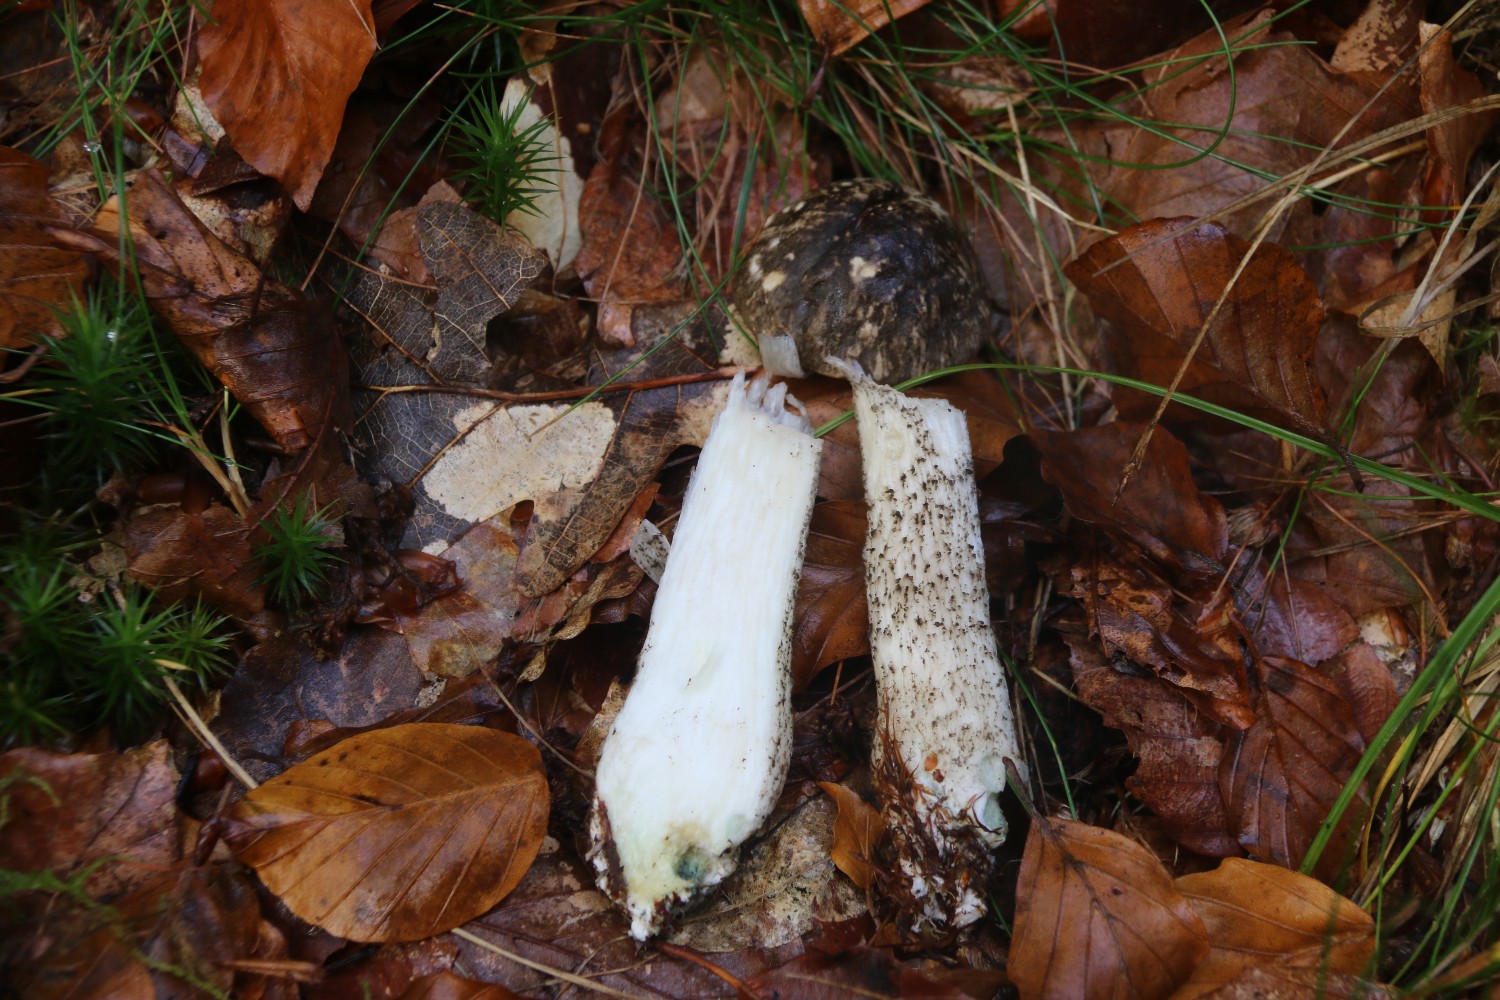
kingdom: Fungi
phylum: Basidiomycota
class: Agaricomycetes
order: Boletales
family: Boletaceae
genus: Leccinum
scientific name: Leccinum variicolor
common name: flammet skælrørhat
